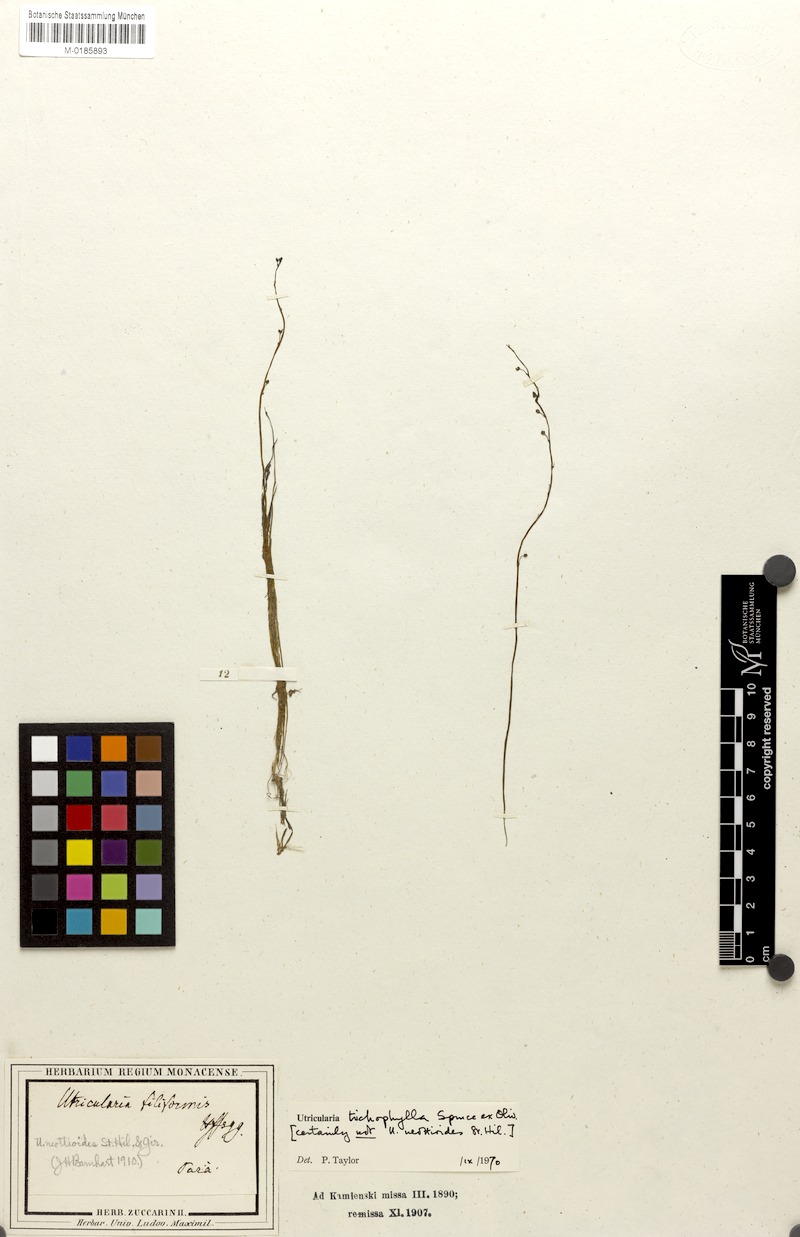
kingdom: Plantae
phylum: Tracheophyta
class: Magnoliopsida
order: Lamiales
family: Lentibulariaceae
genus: Utricularia
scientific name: Utricularia trichophylla
